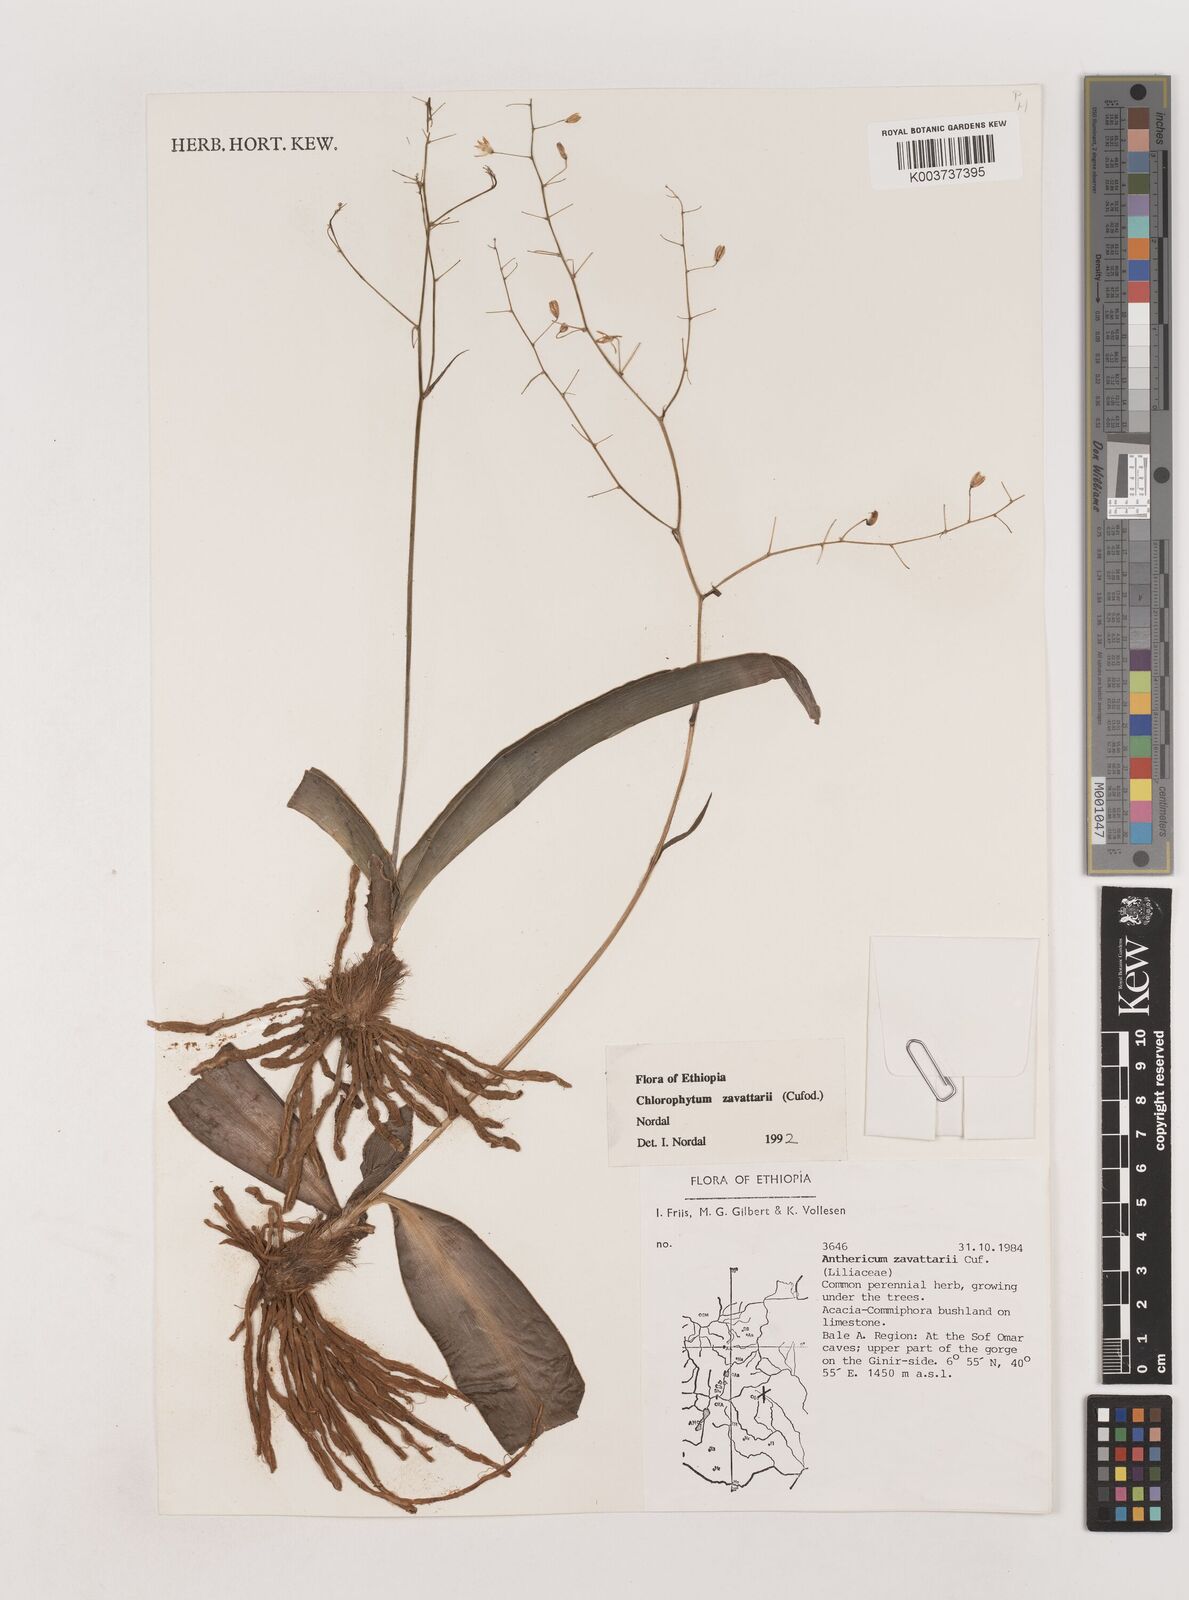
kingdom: Plantae
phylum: Tracheophyta
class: Liliopsida
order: Asparagales
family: Asparagaceae
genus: Chlorophytum
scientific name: Chlorophytum zavattarii
